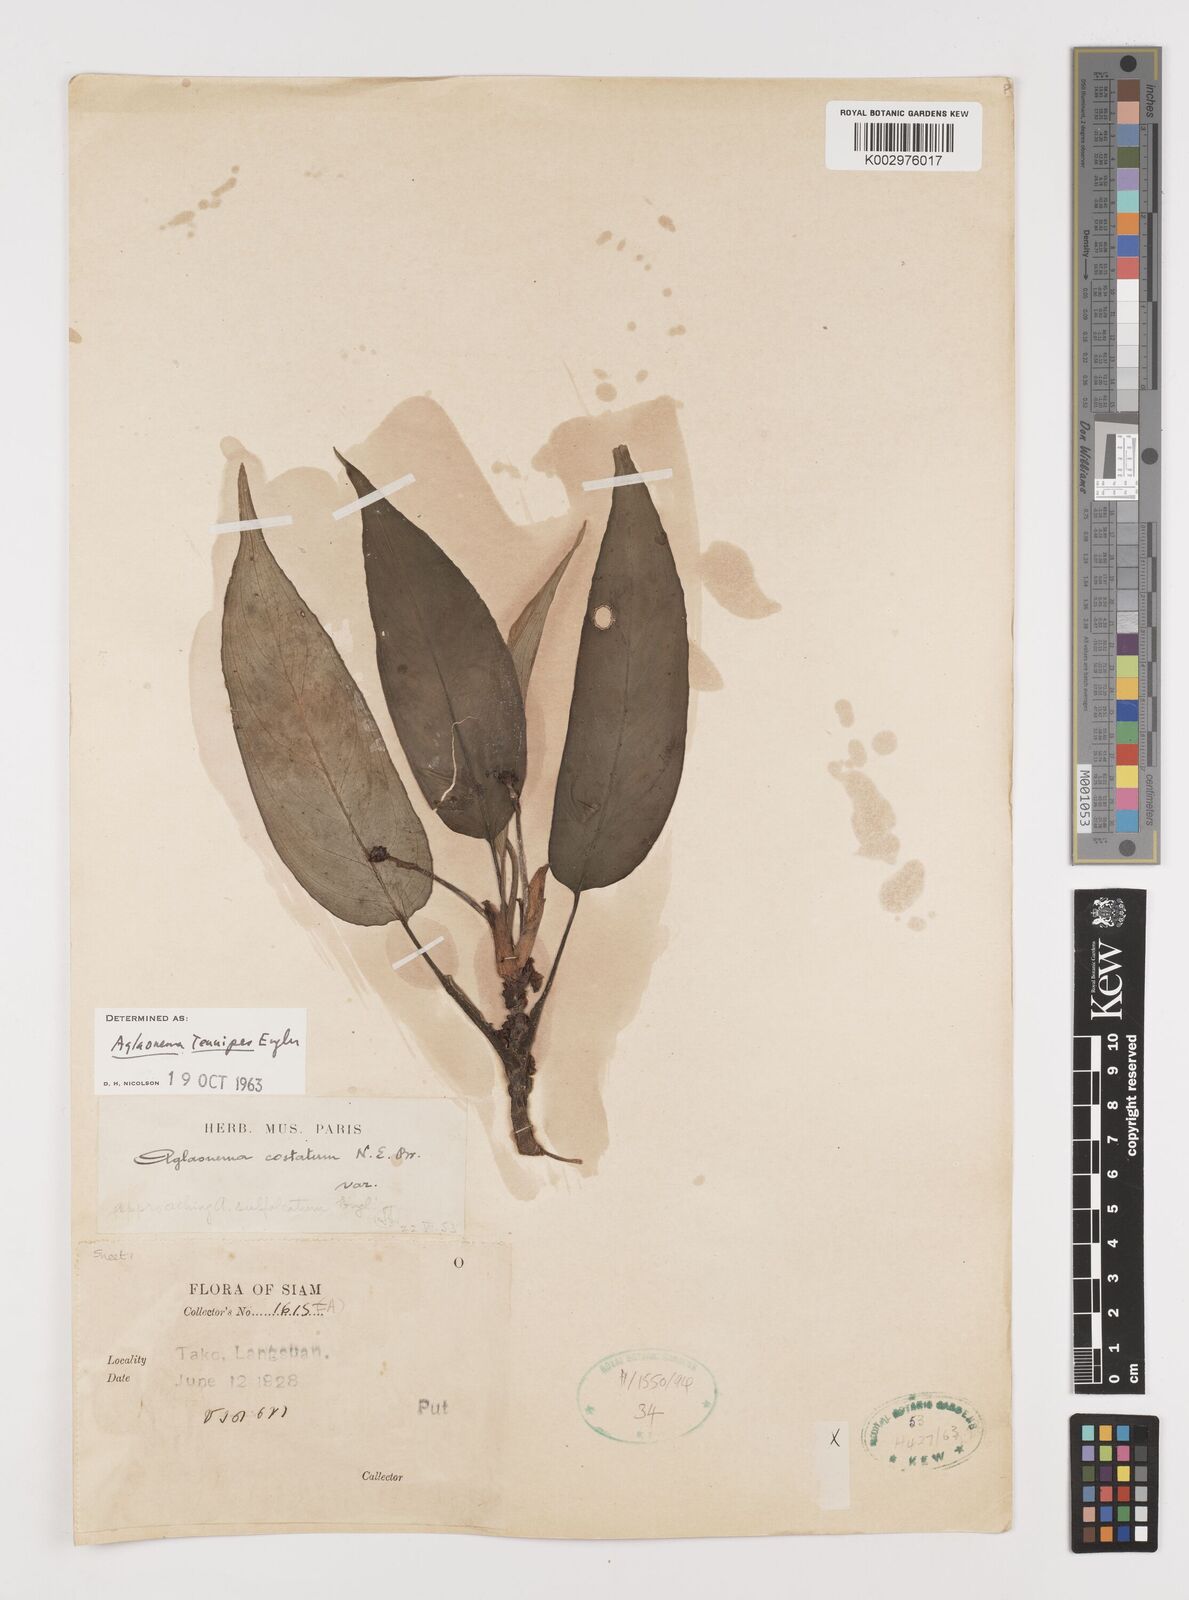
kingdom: Plantae
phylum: Tracheophyta
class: Liliopsida
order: Alismatales
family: Araceae
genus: Aglaonema
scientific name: Aglaonema simplex
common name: Malayan-sword
